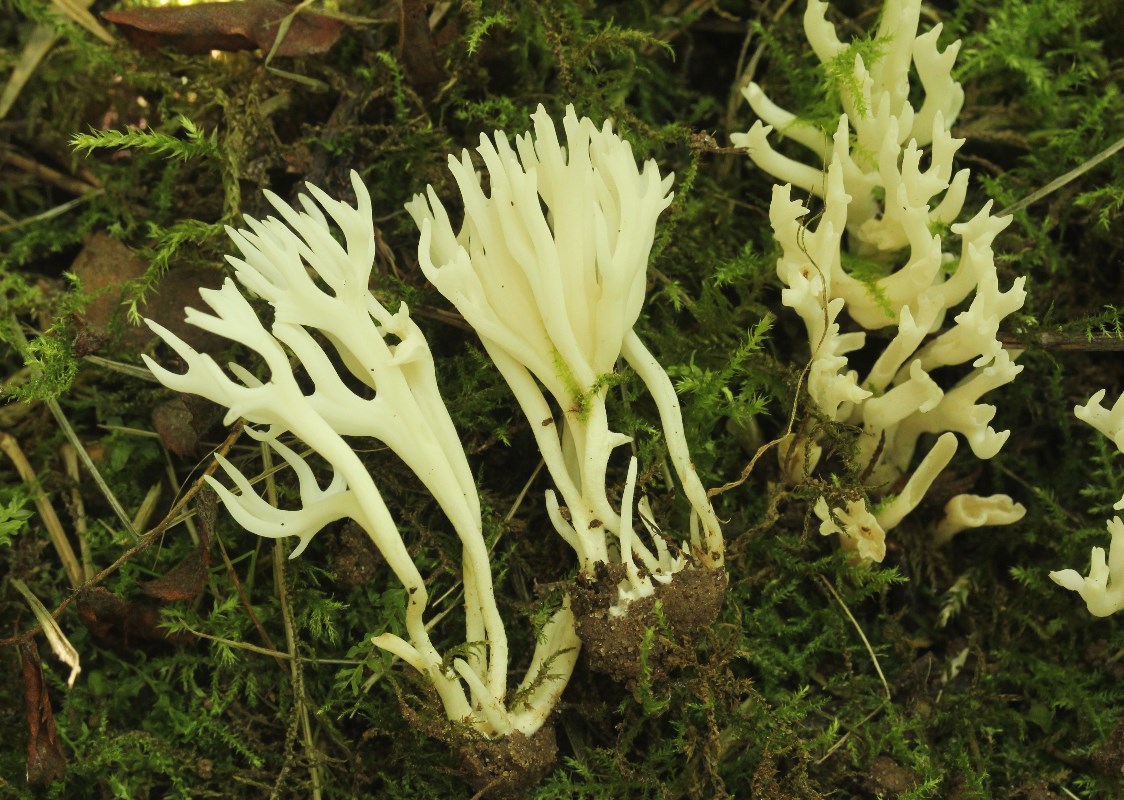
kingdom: Fungi
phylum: Basidiomycota
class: Agaricomycetes
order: Agaricales
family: Clavariaceae
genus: Ramariopsis
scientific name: Ramariopsis kunzei
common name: mangegrenet køllesvamp
